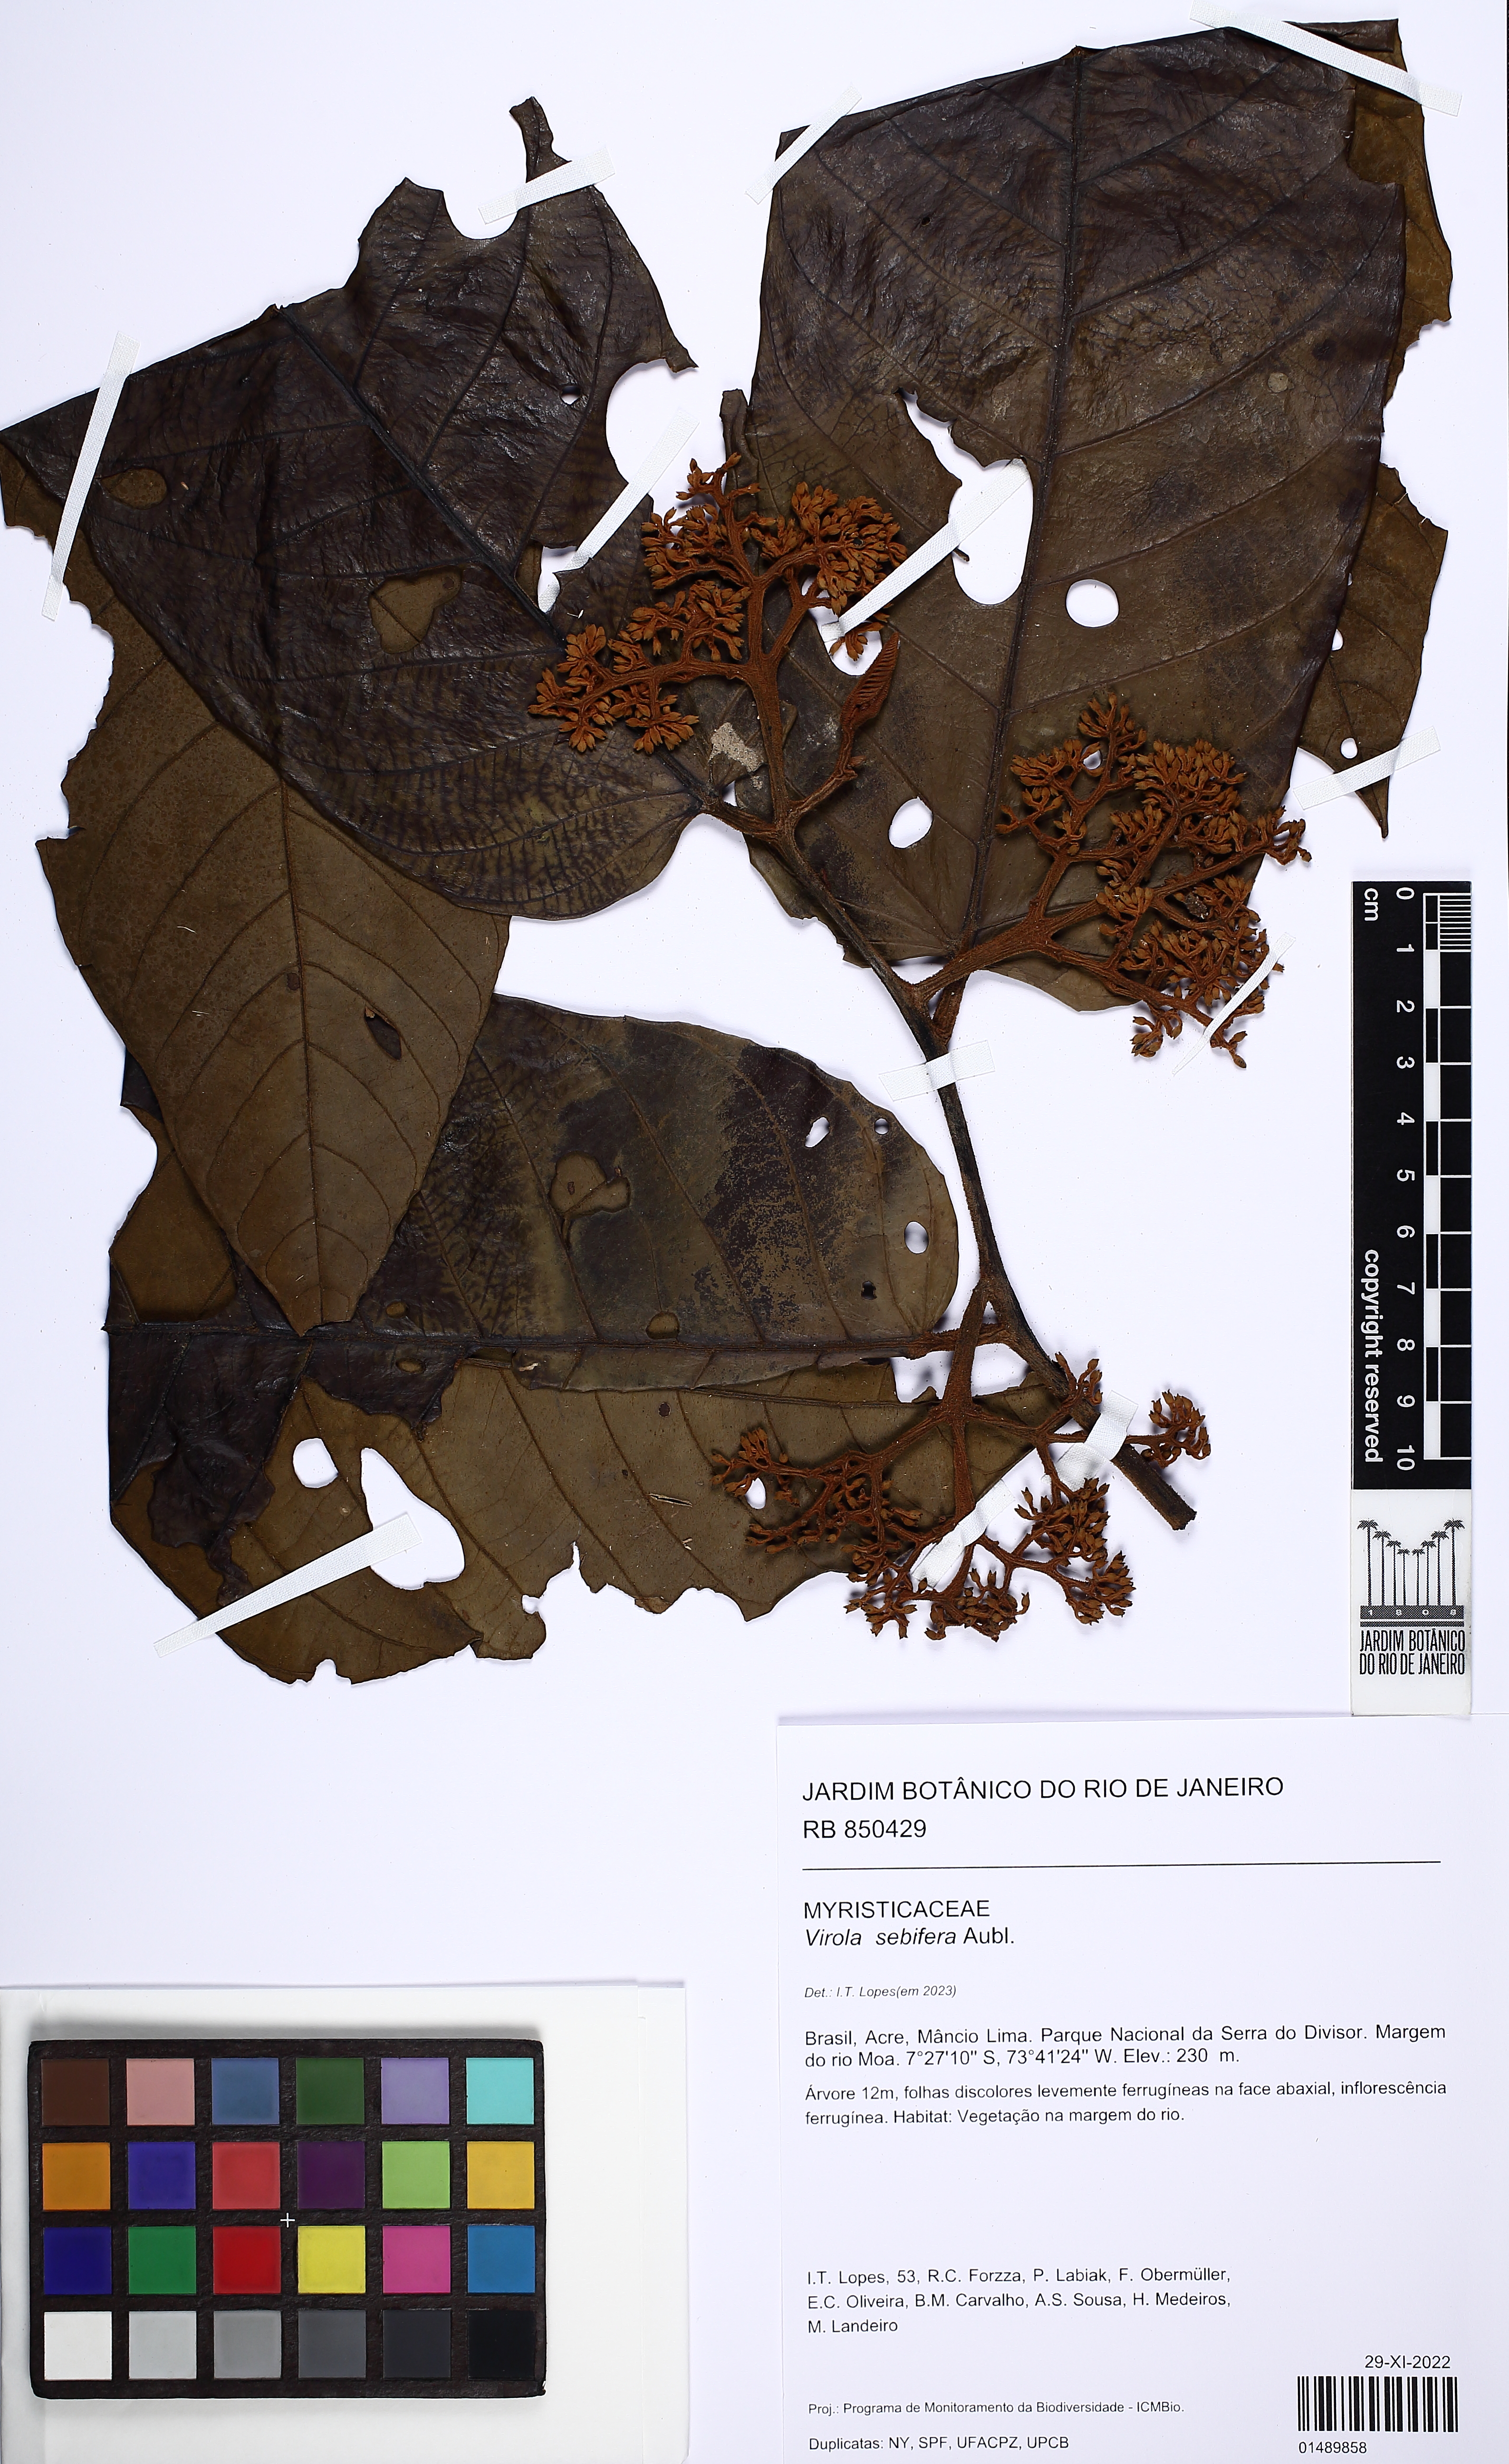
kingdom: Plantae
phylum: Tracheophyta
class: Magnoliopsida
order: Magnoliales
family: Myristicaceae
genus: Virola
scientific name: Virola sebifera
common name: Red ucuuba
